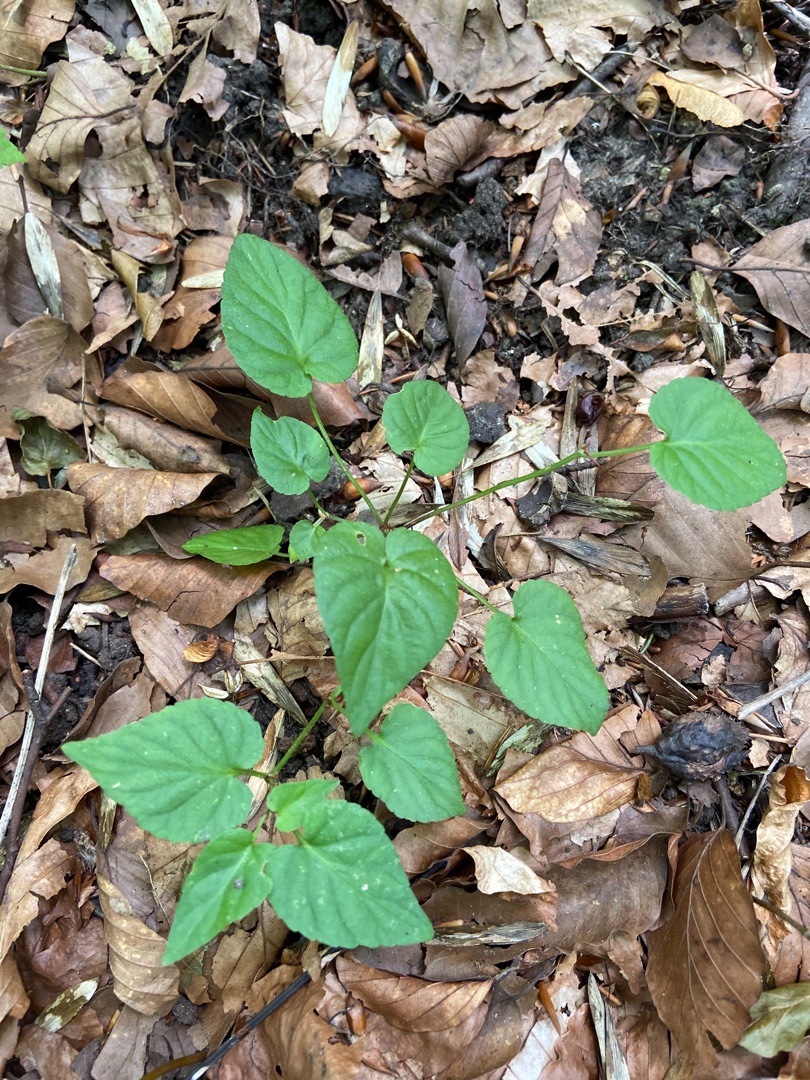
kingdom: Plantae
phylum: Tracheophyta
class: Magnoliopsida
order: Malpighiales
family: Violaceae
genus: Viola
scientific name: Viola
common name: Violslægten
